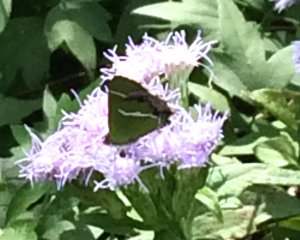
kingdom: Animalia
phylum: Arthropoda
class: Insecta
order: Lepidoptera
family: Lycaenidae
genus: Chlorostrymon
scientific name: Chlorostrymon simaethis
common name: Silver-banded Hairstreak
